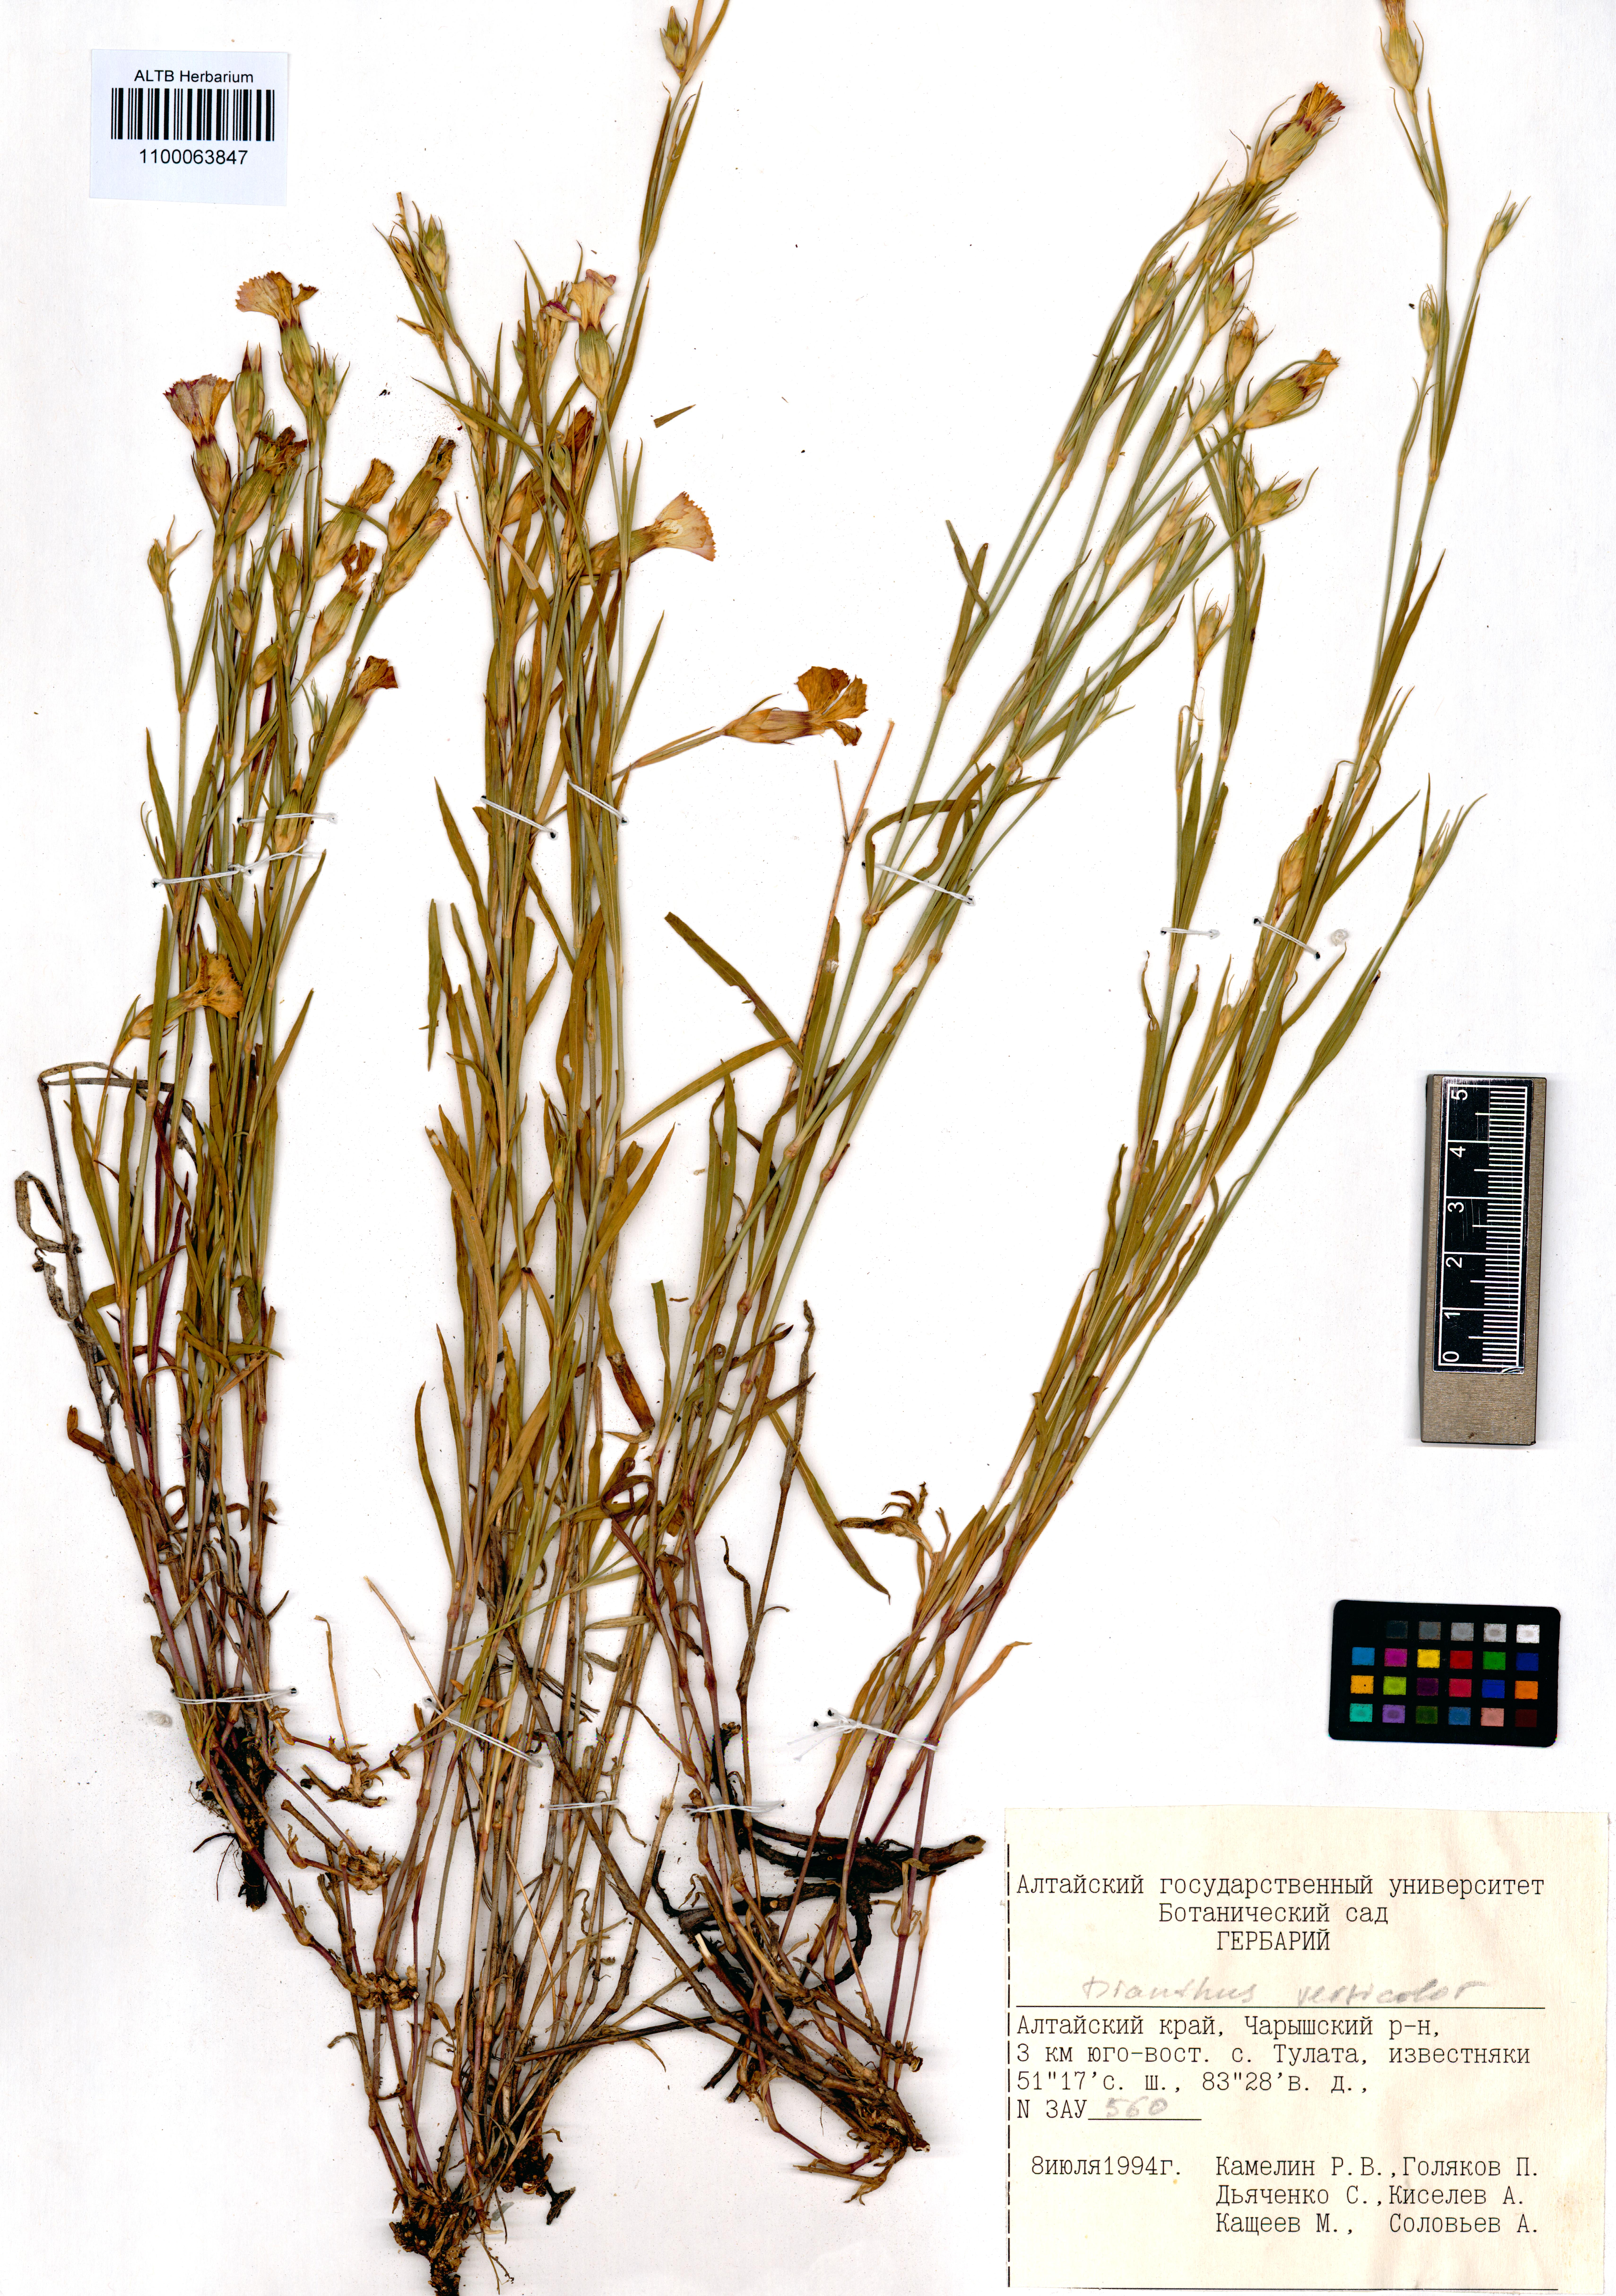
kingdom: Plantae
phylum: Tracheophyta
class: Magnoliopsida
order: Caryophyllales
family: Caryophyllaceae
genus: Dianthus
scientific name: Dianthus chinensis
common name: Rainbow pink
